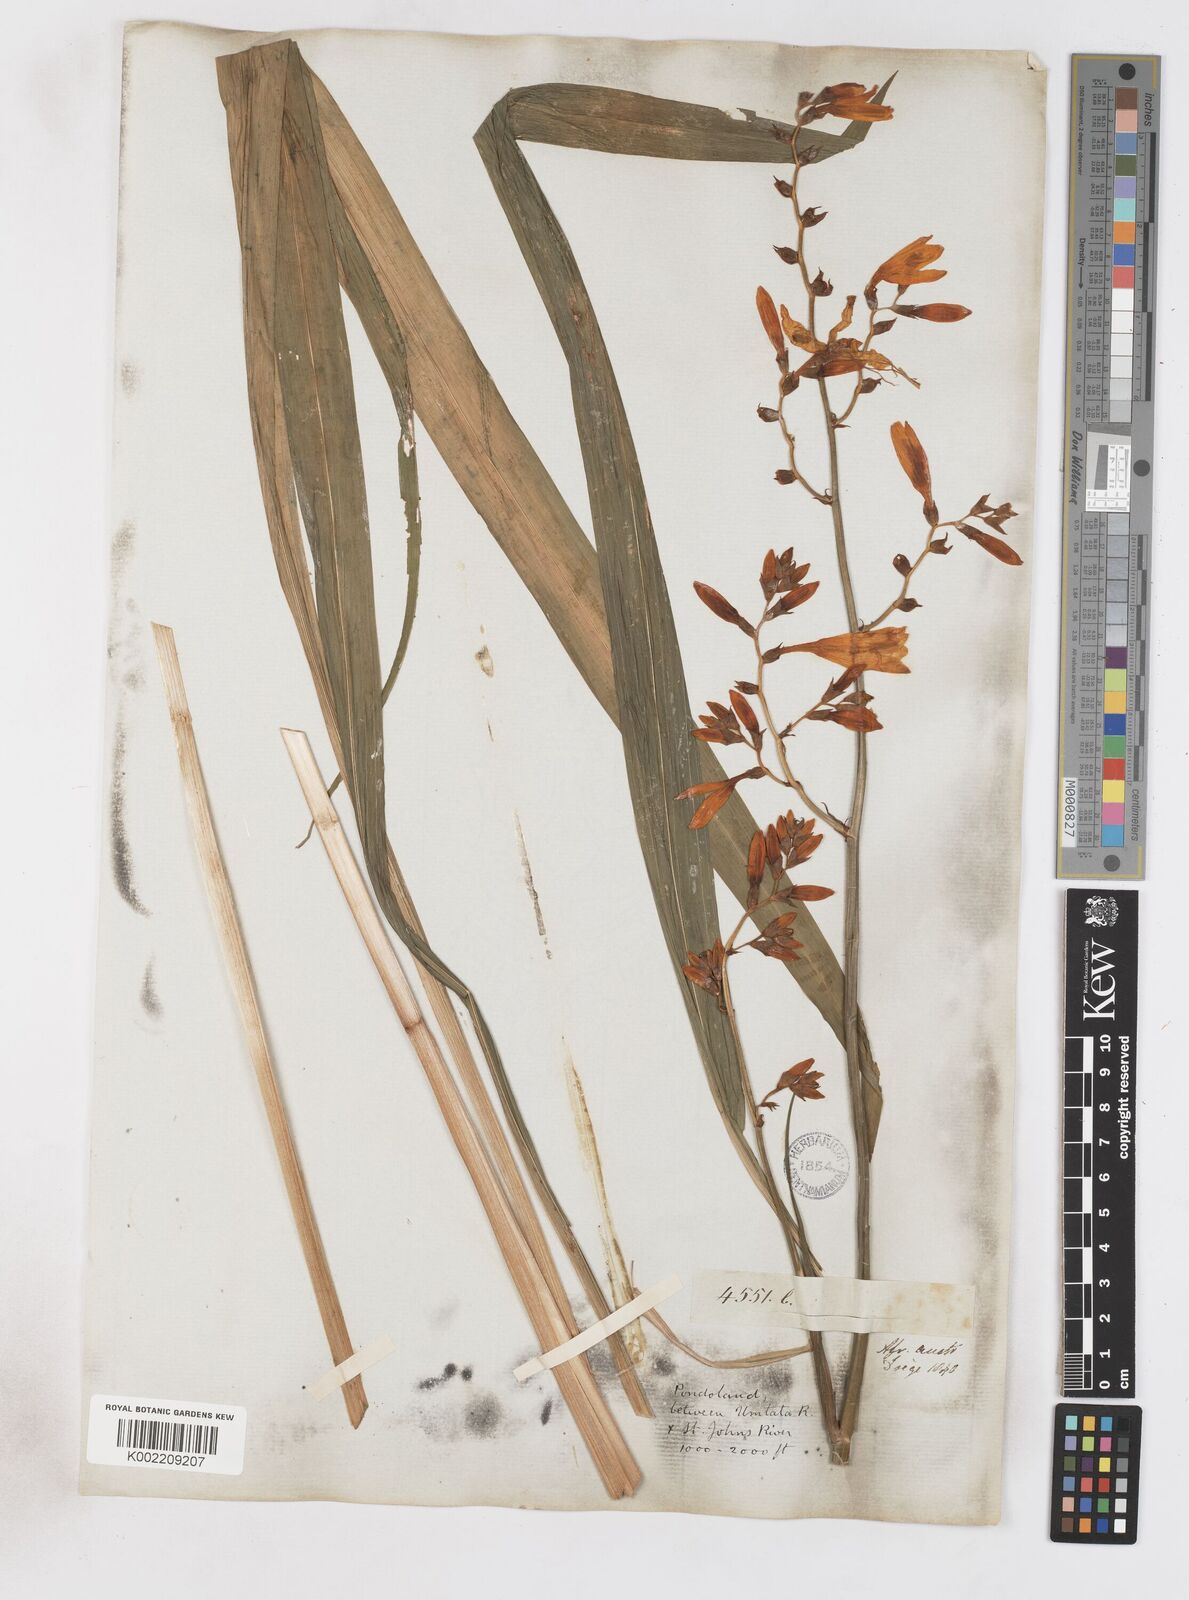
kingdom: Plantae
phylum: Tracheophyta
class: Liliopsida
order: Asparagales
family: Iridaceae
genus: Crocosmia
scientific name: Crocosmia aurea
